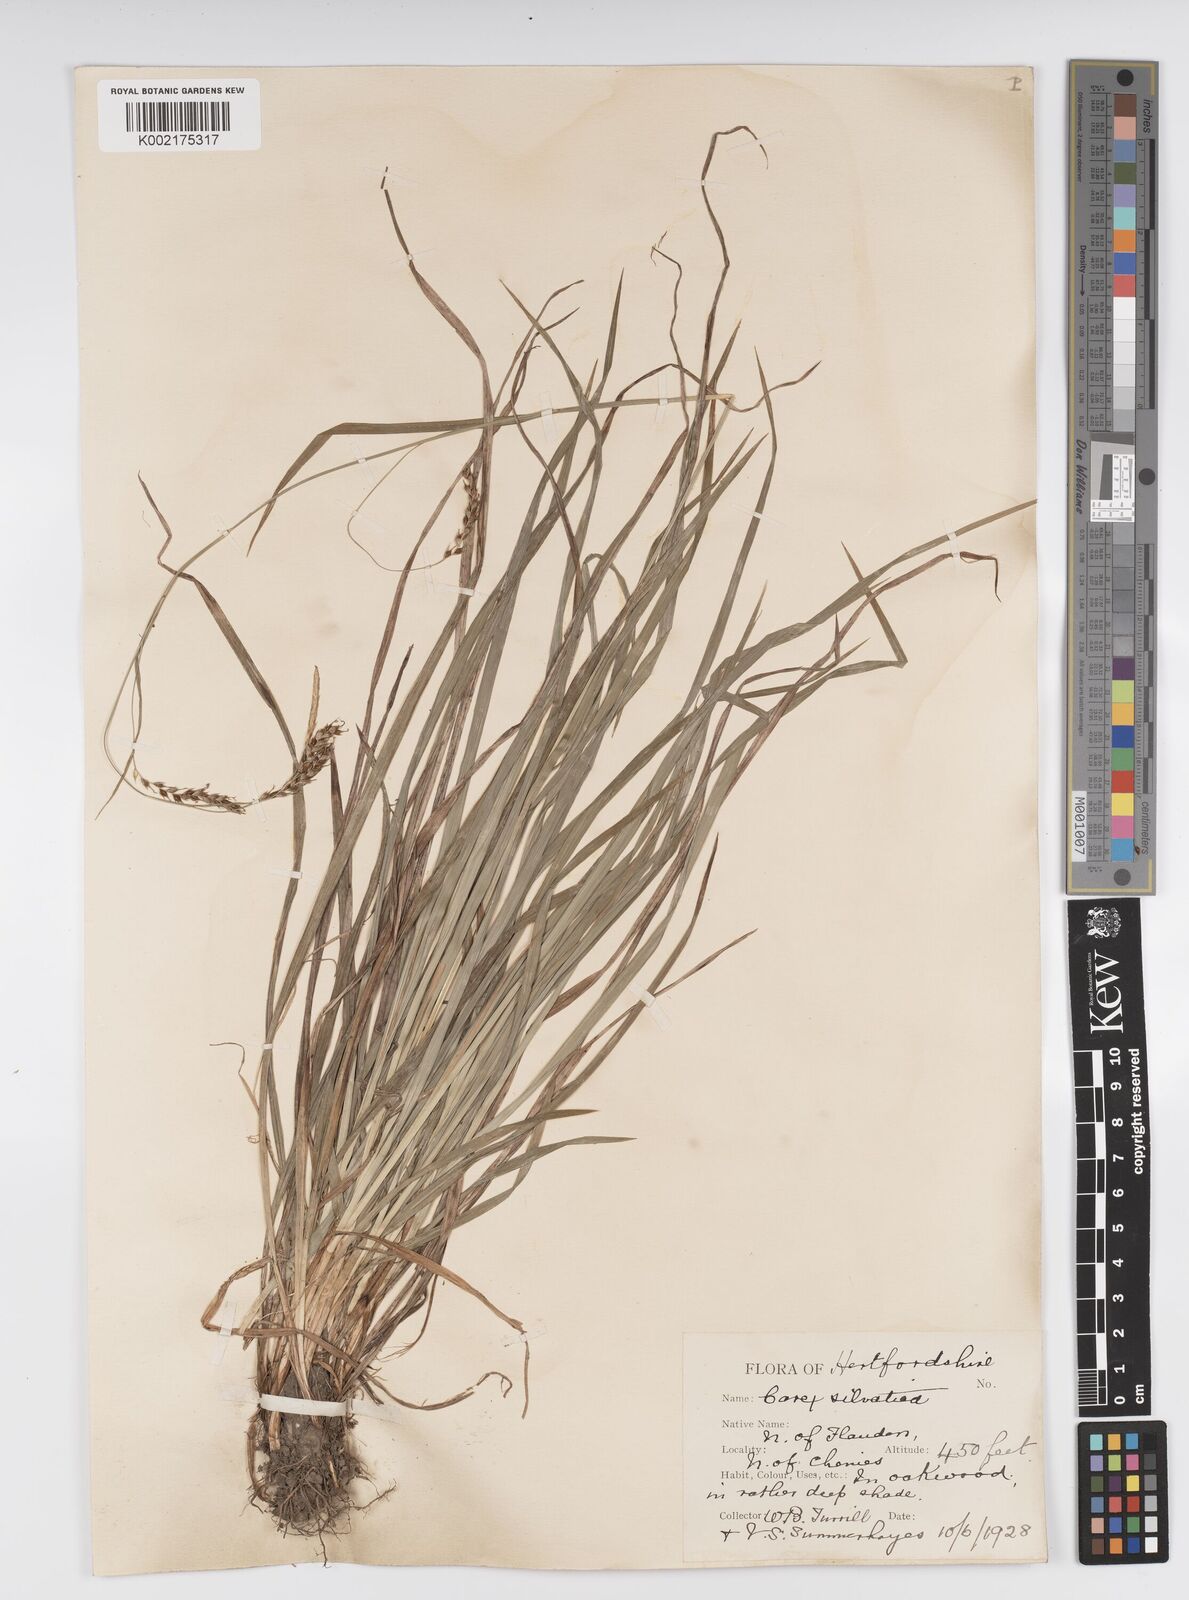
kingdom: Plantae
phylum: Tracheophyta
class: Liliopsida
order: Poales
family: Cyperaceae
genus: Carex
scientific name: Carex sylvatica
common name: Wood-sedge
